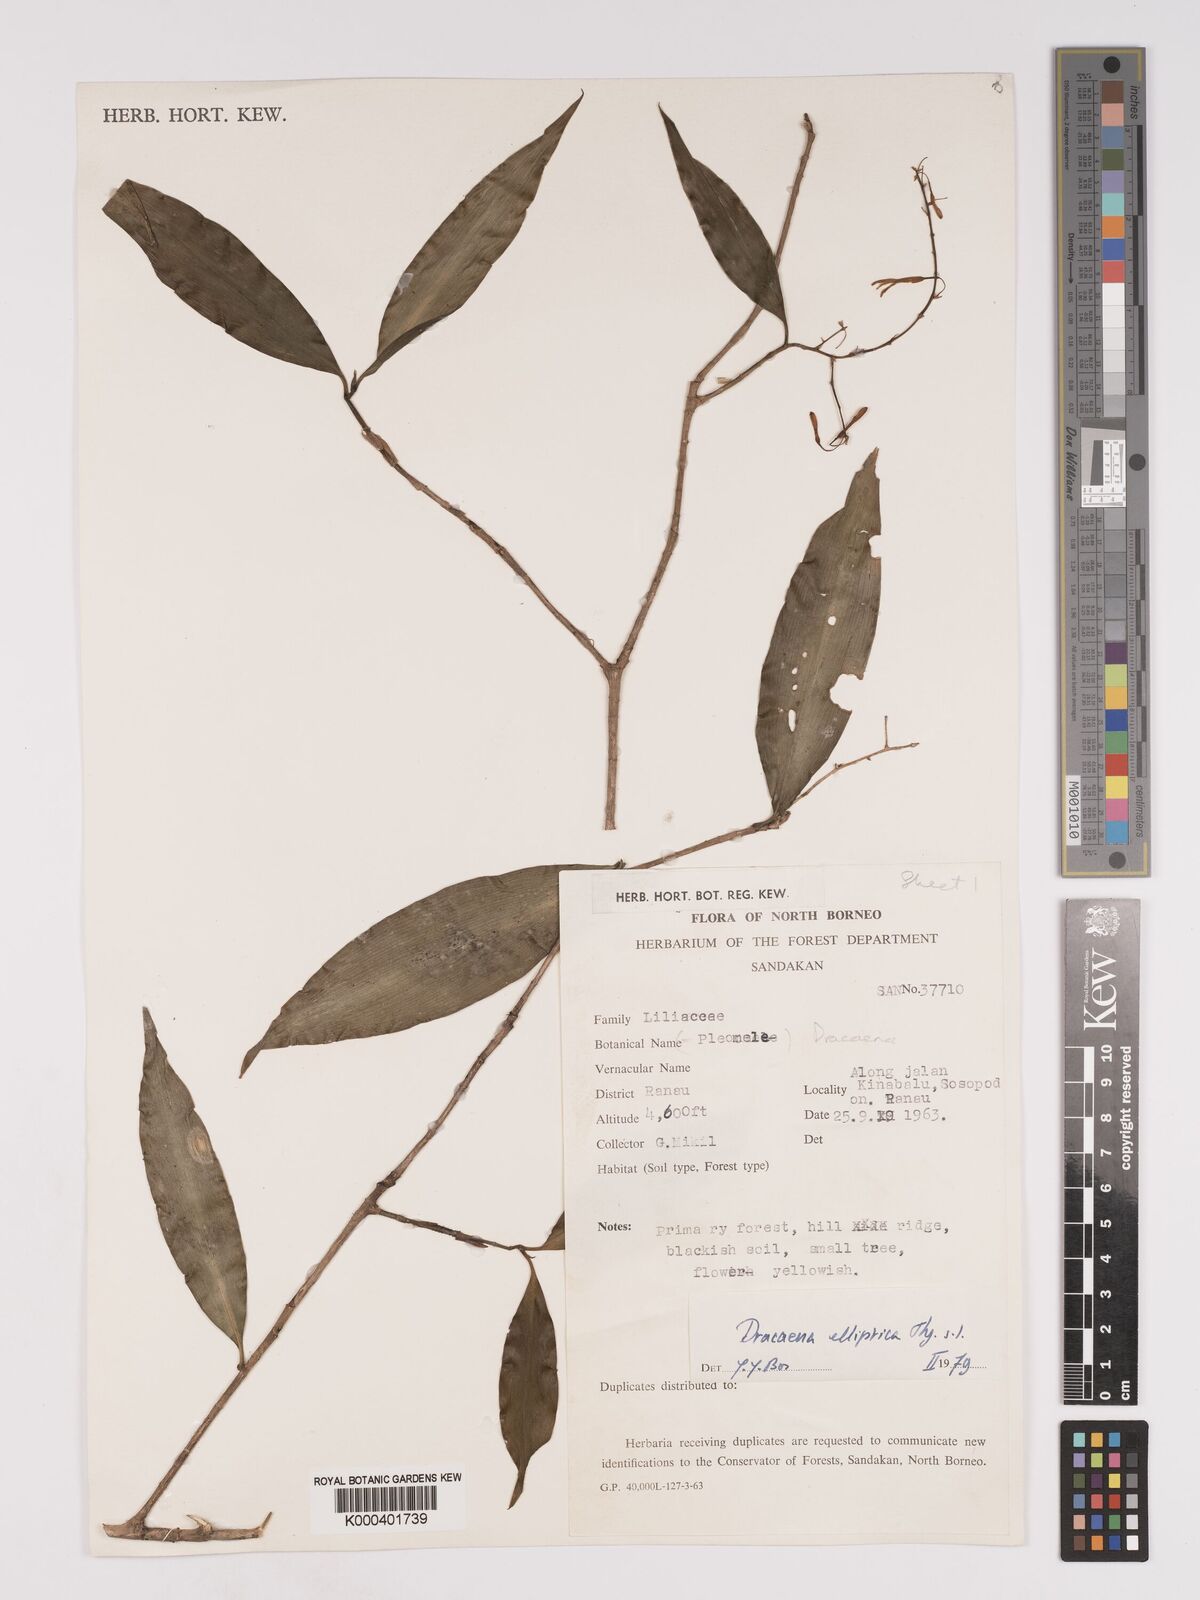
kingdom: Plantae
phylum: Tracheophyta
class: Liliopsida
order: Asparagales
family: Asparagaceae
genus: Dracaena
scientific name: Dracaena elliptica
